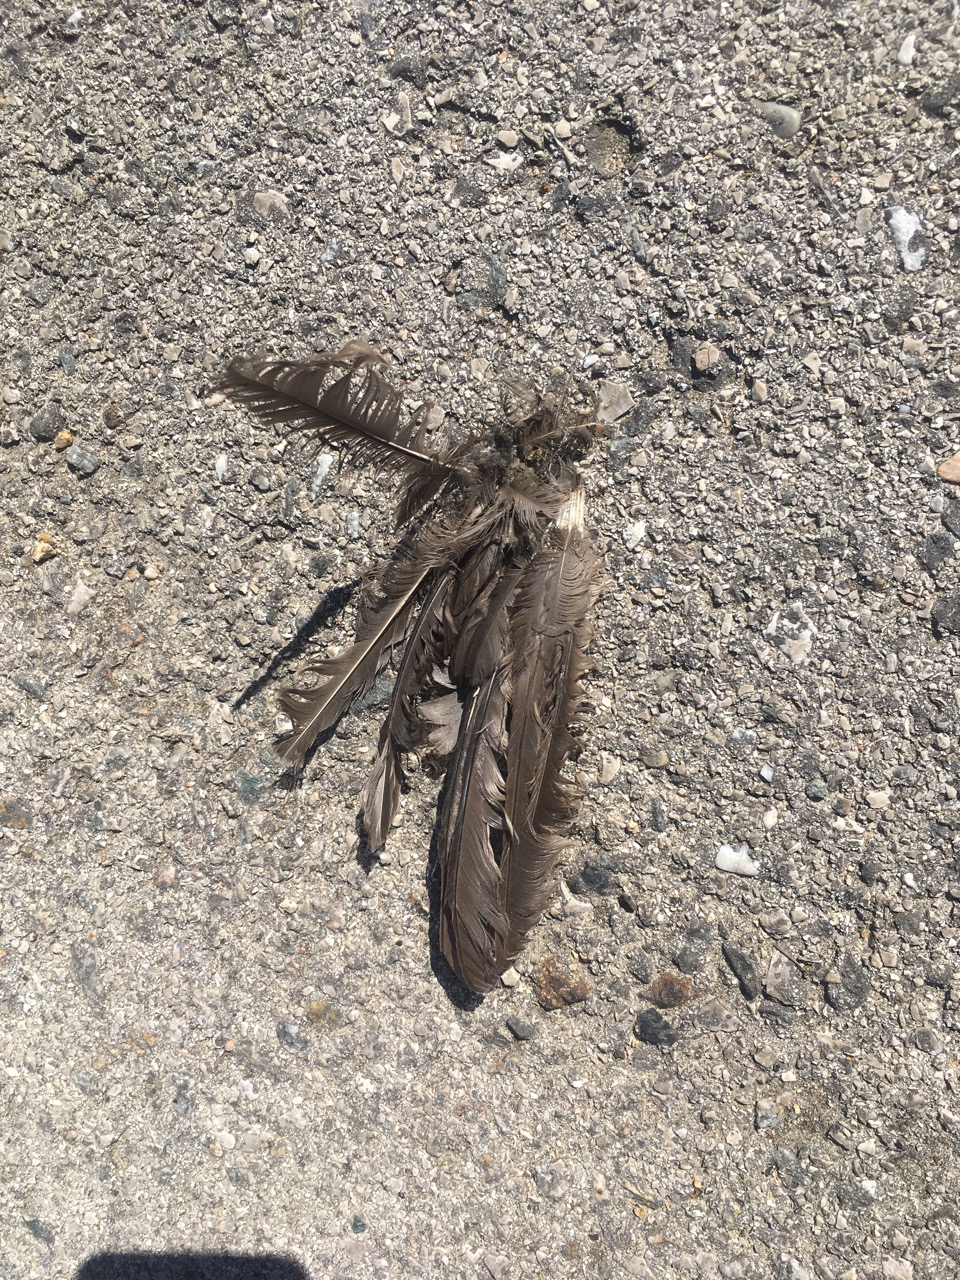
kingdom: Animalia
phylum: Chordata
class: Aves
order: Passeriformes
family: Turdidae
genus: Turdus
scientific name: Turdus merula
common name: Common blackbird
